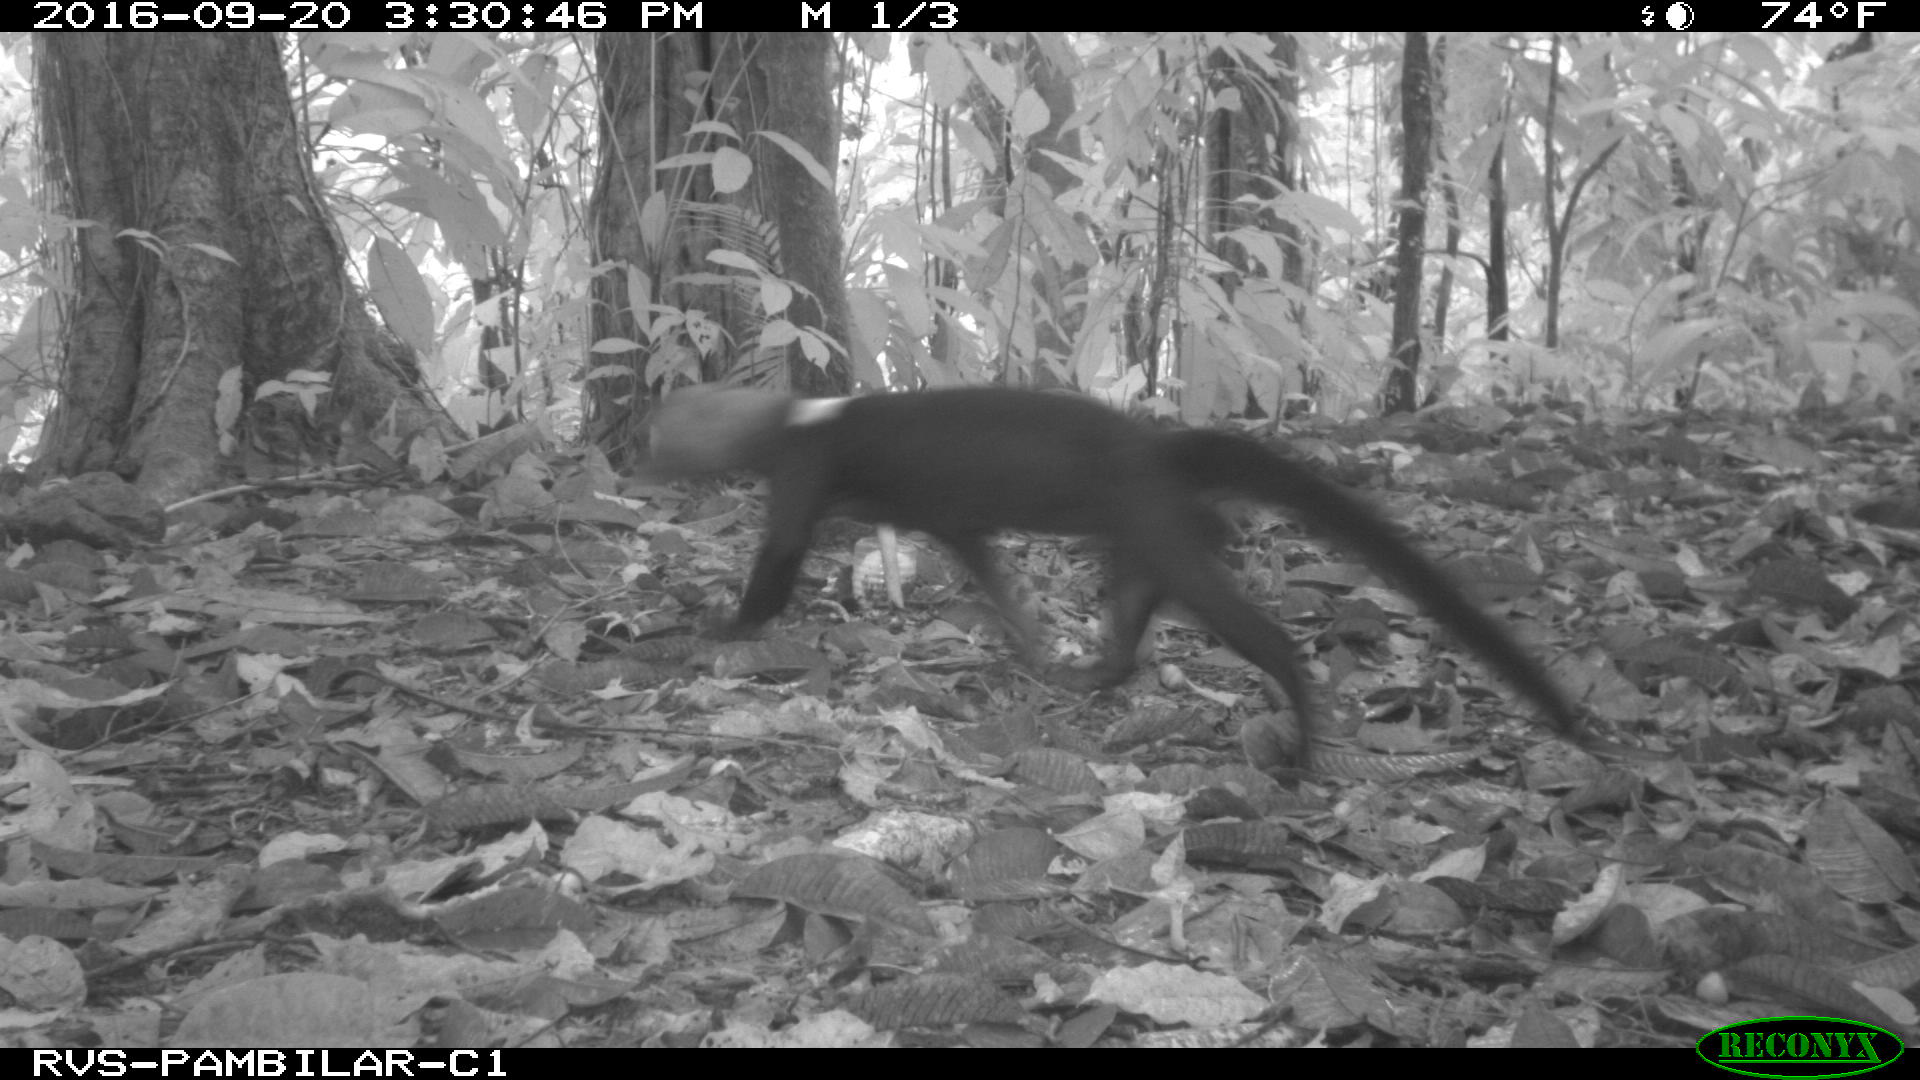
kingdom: Animalia
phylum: Chordata
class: Mammalia
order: Carnivora
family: Mustelidae
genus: Eira
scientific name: Eira barbara
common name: Tayra
